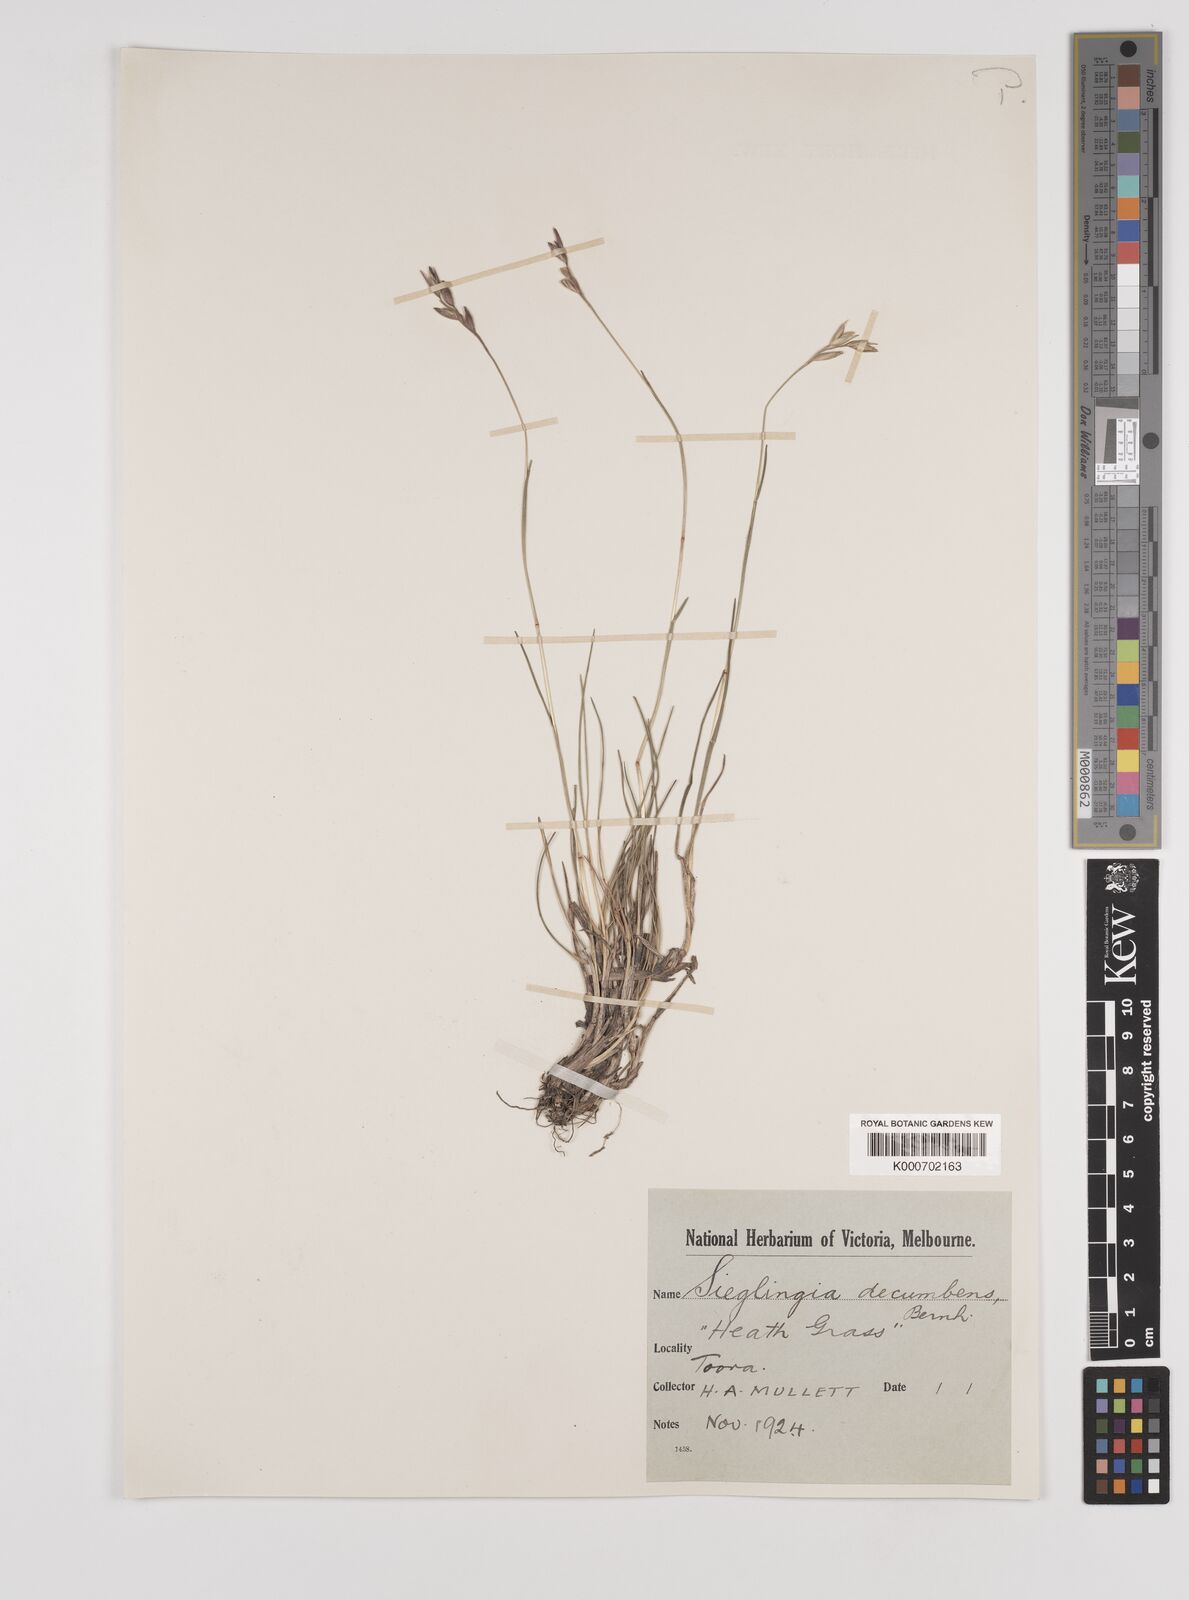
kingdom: Plantae
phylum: Tracheophyta
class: Liliopsida
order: Poales
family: Poaceae
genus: Danthonia
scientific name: Danthonia decumbens
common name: Common heathgrass
